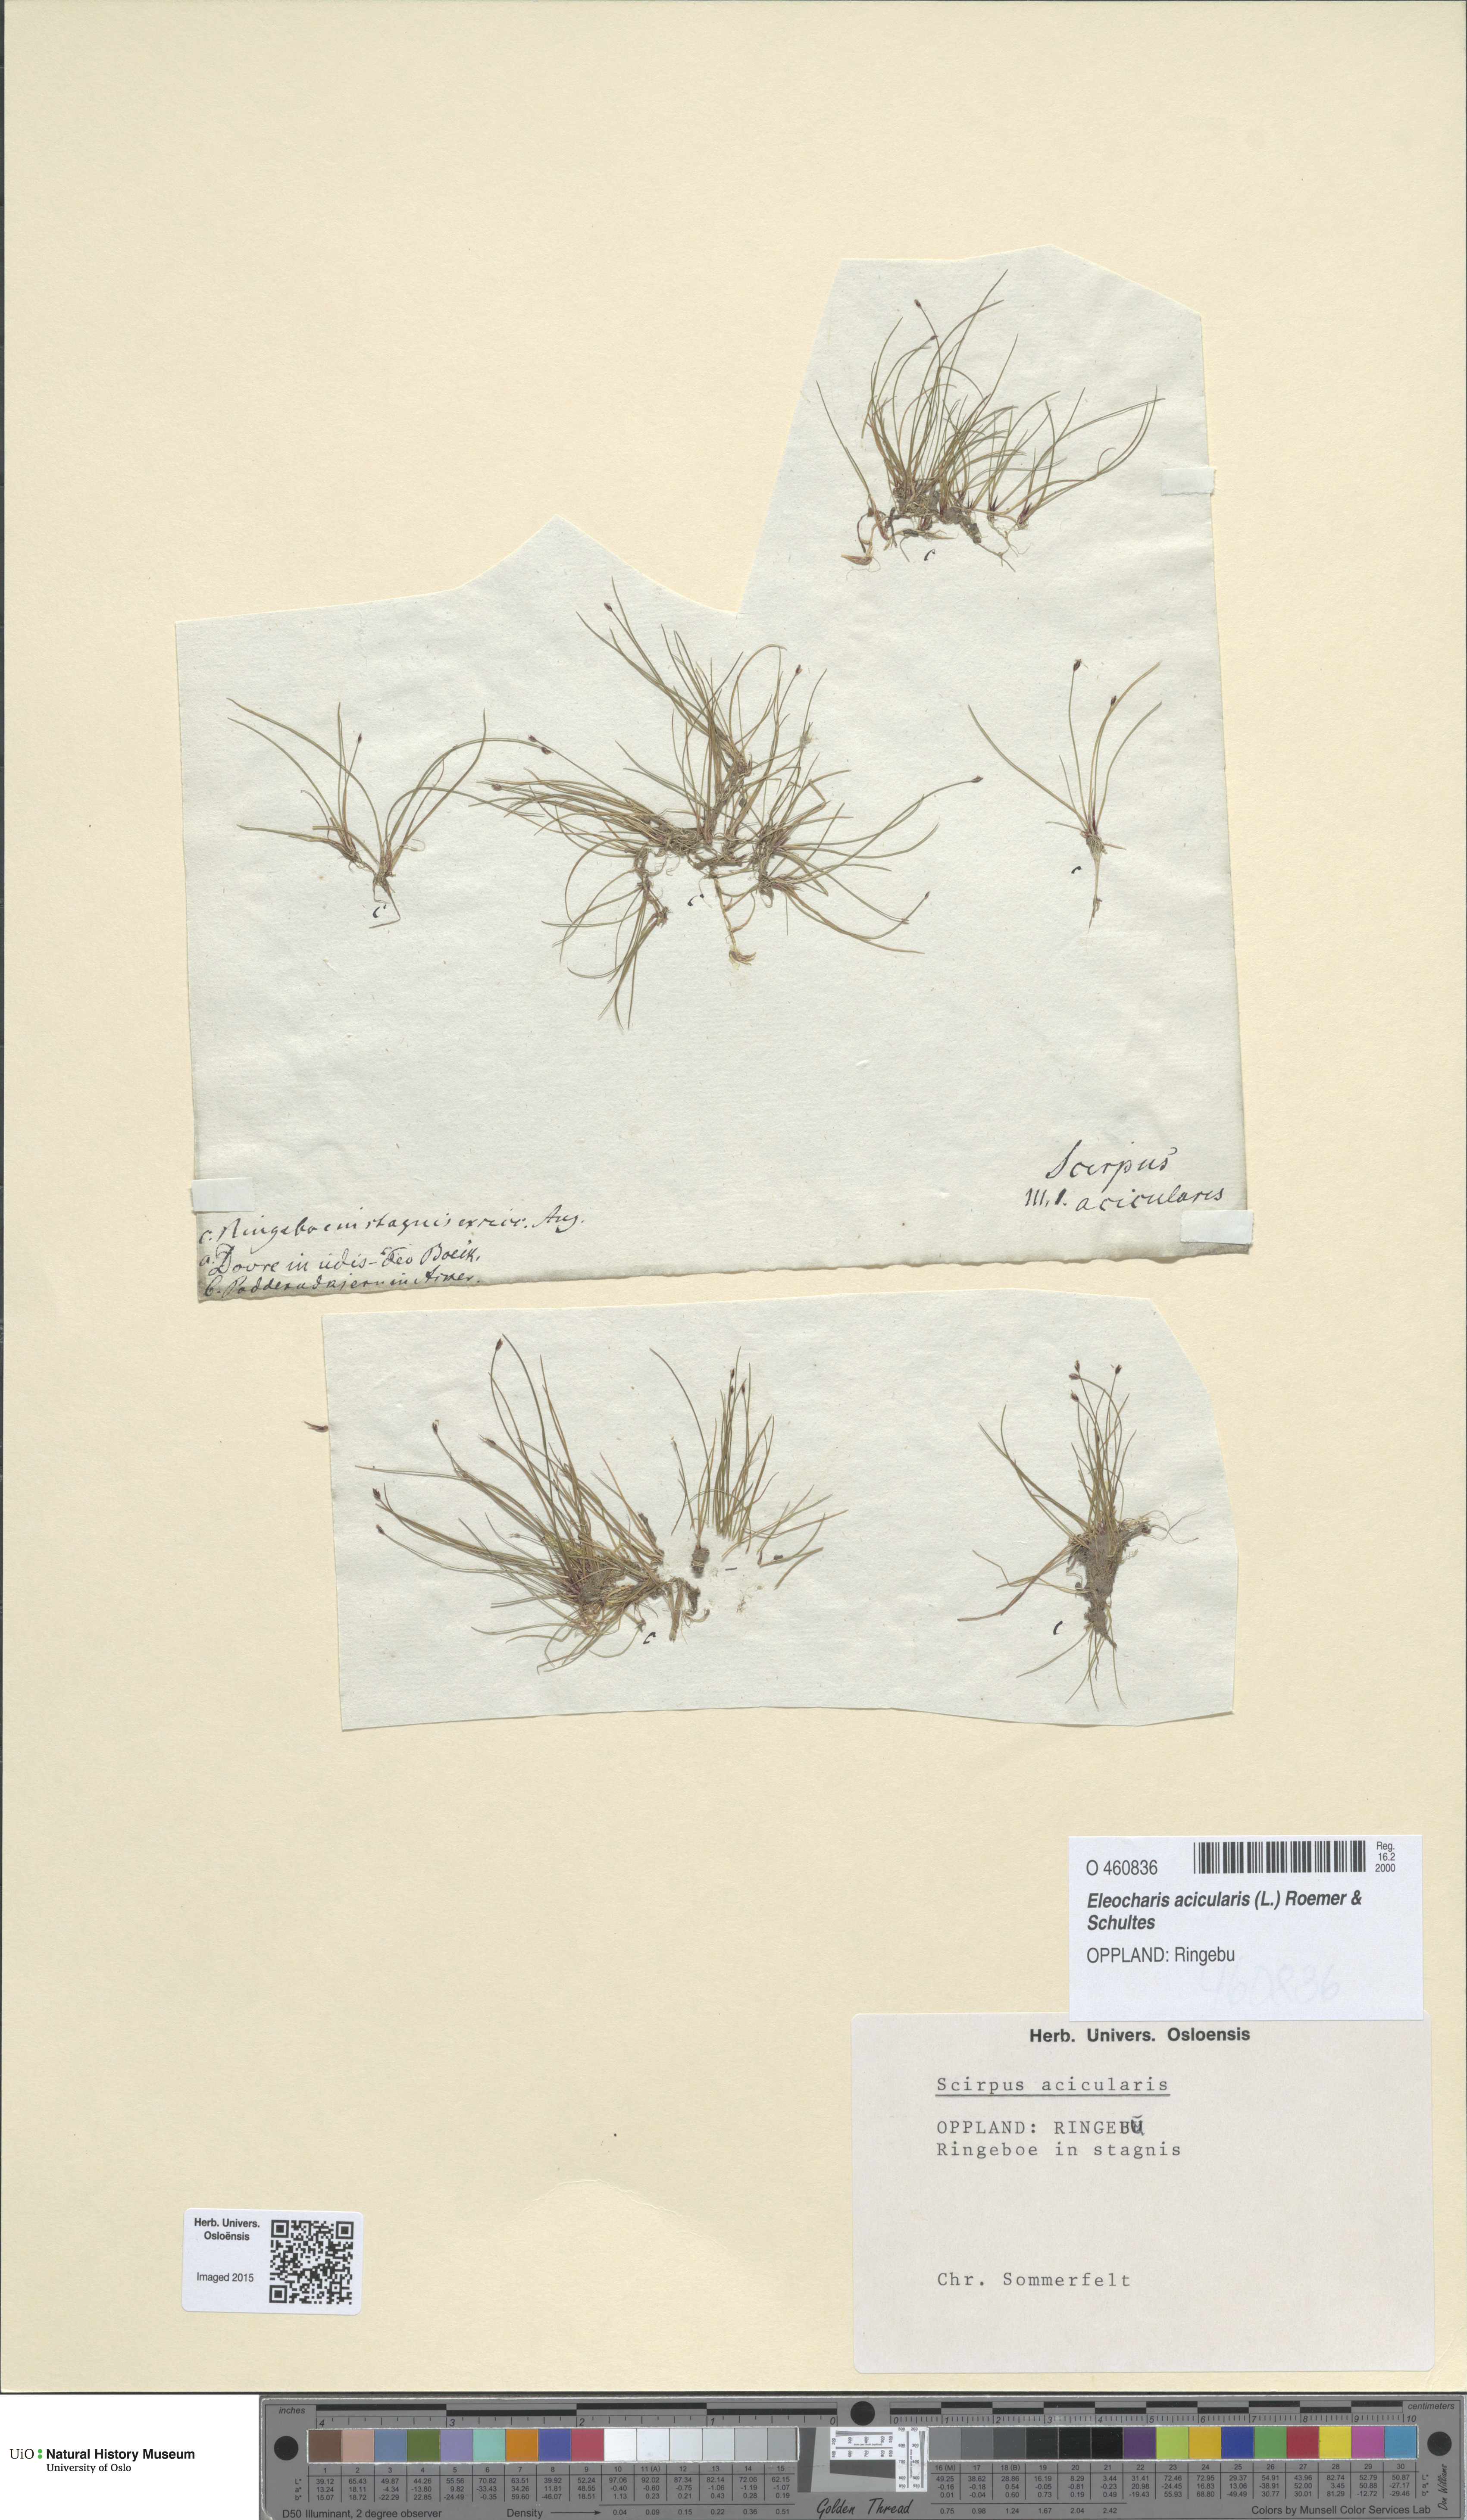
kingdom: Plantae
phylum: Tracheophyta
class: Liliopsida
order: Poales
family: Cyperaceae
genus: Eleocharis
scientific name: Eleocharis acicularis
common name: Needle spike-rush
